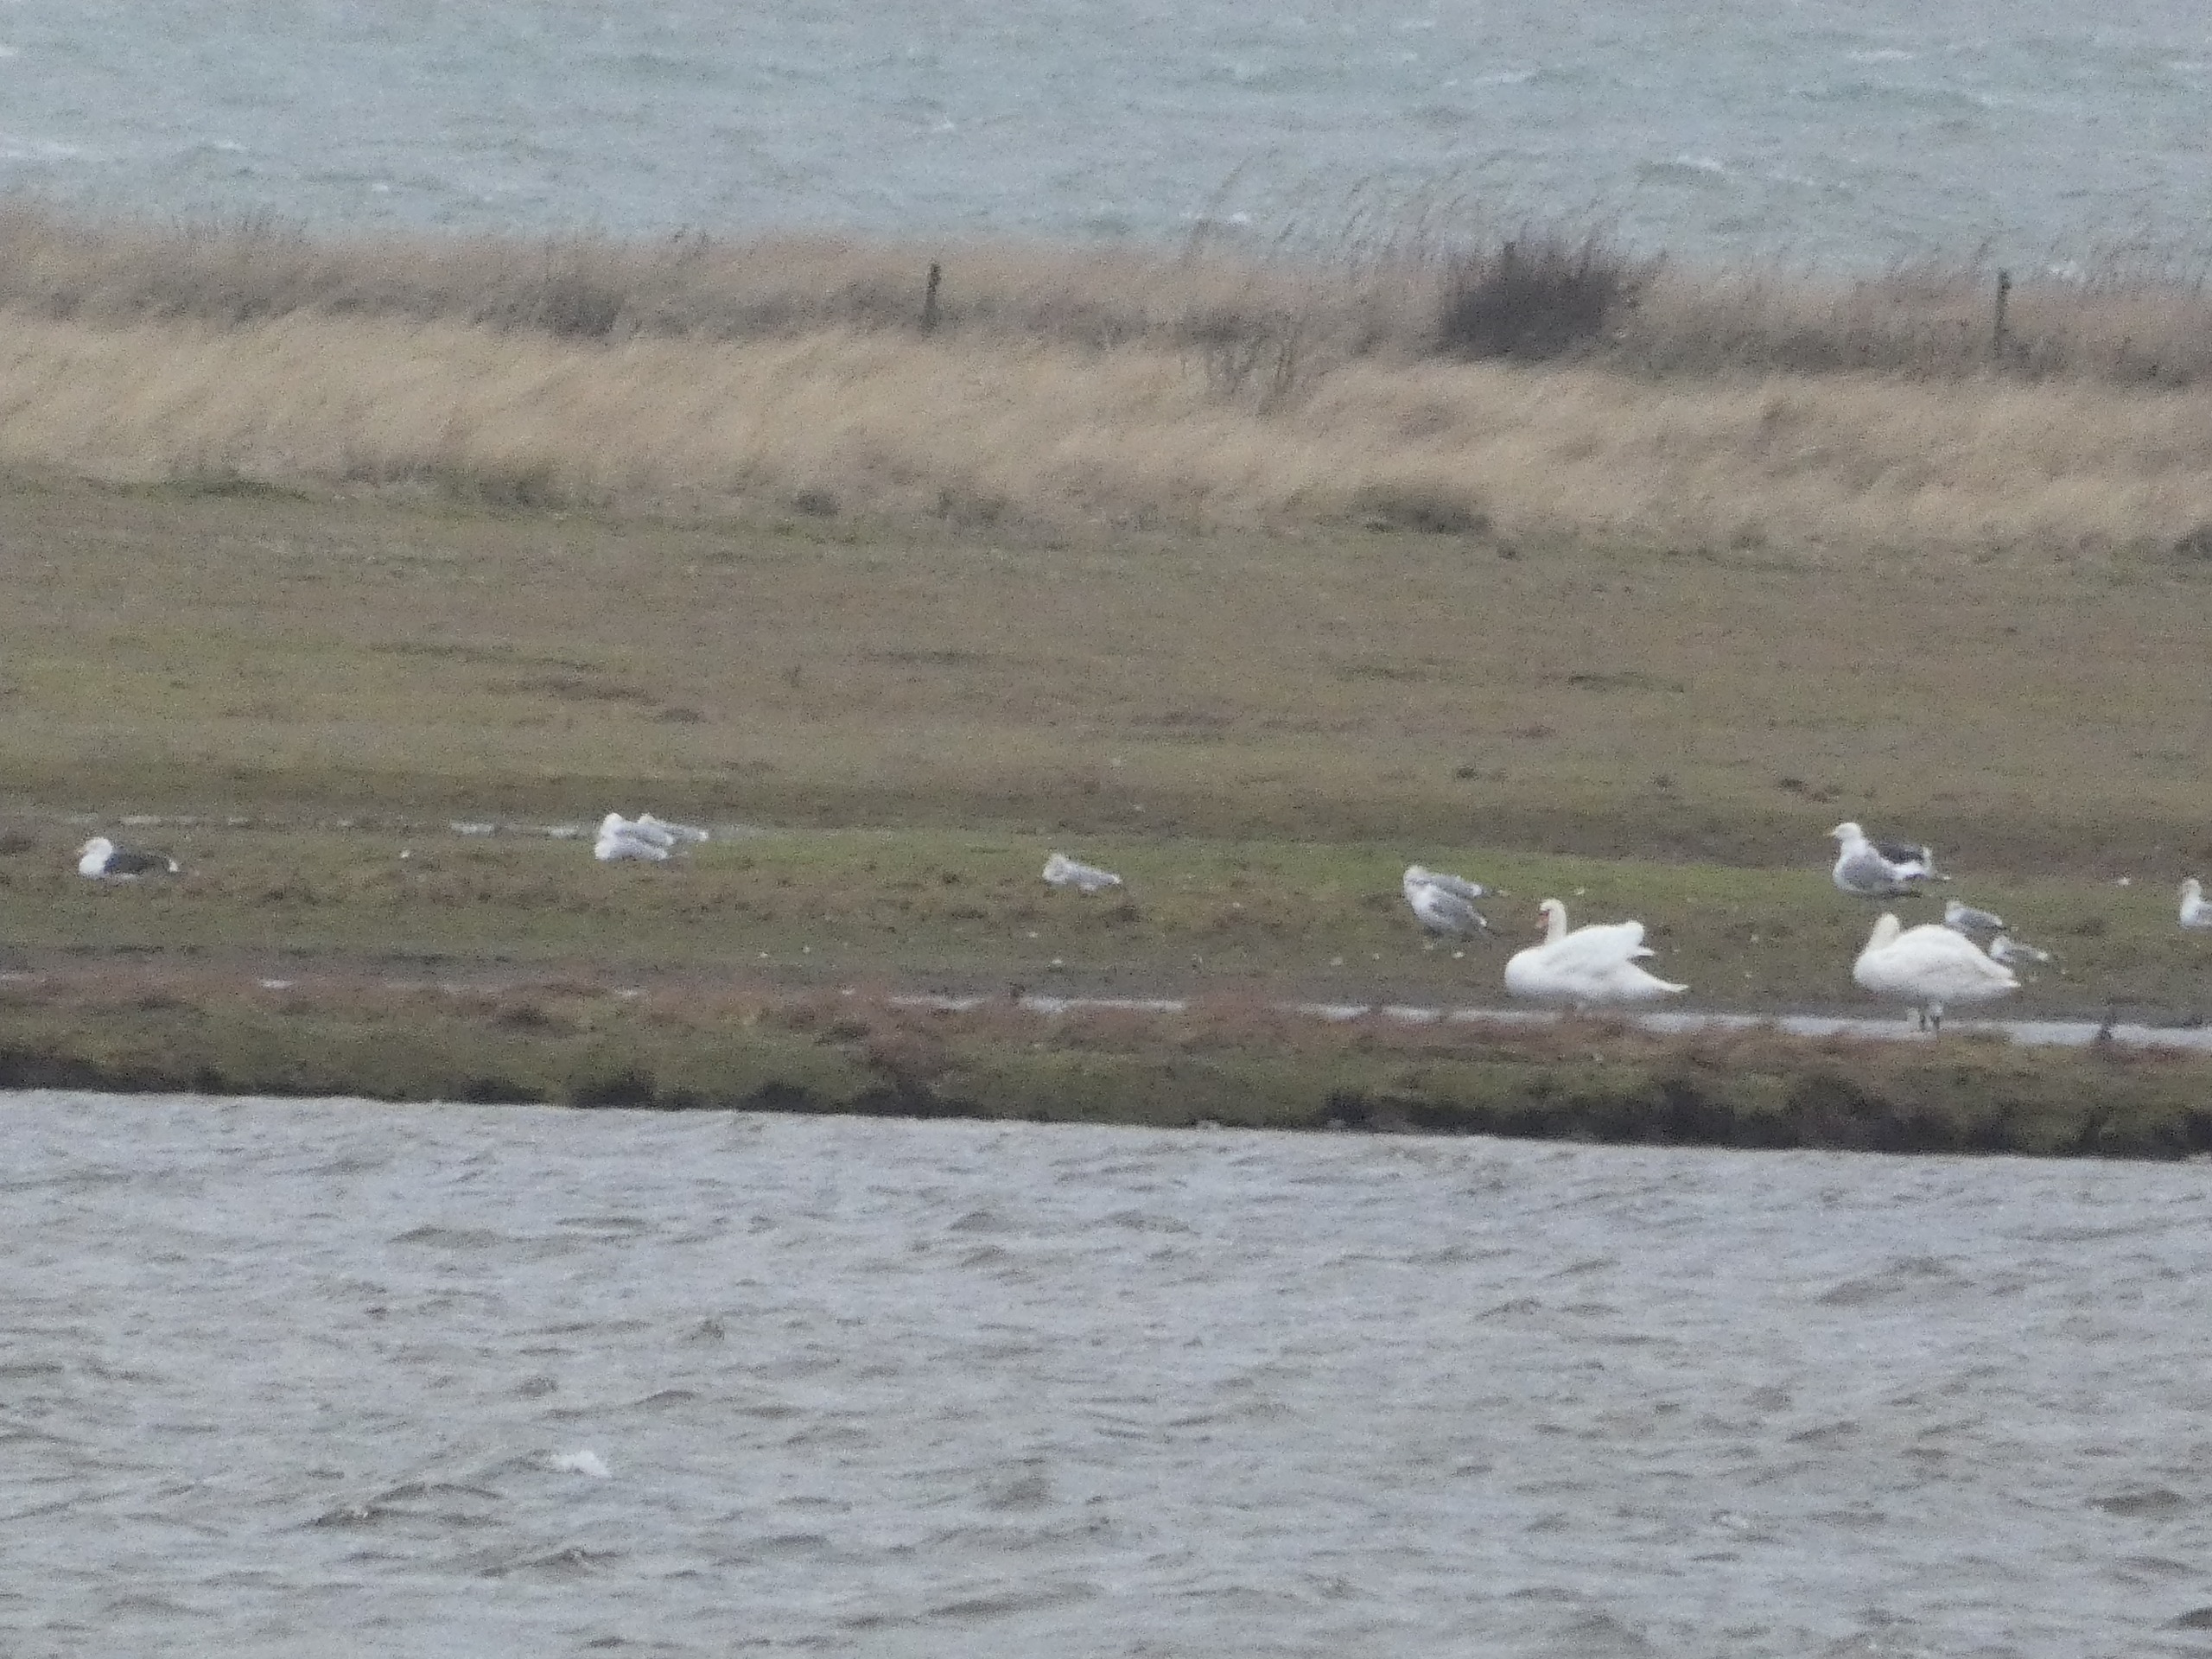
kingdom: Animalia
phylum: Chordata
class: Aves
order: Anseriformes
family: Anatidae
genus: Cygnus
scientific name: Cygnus olor
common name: Knopsvane
